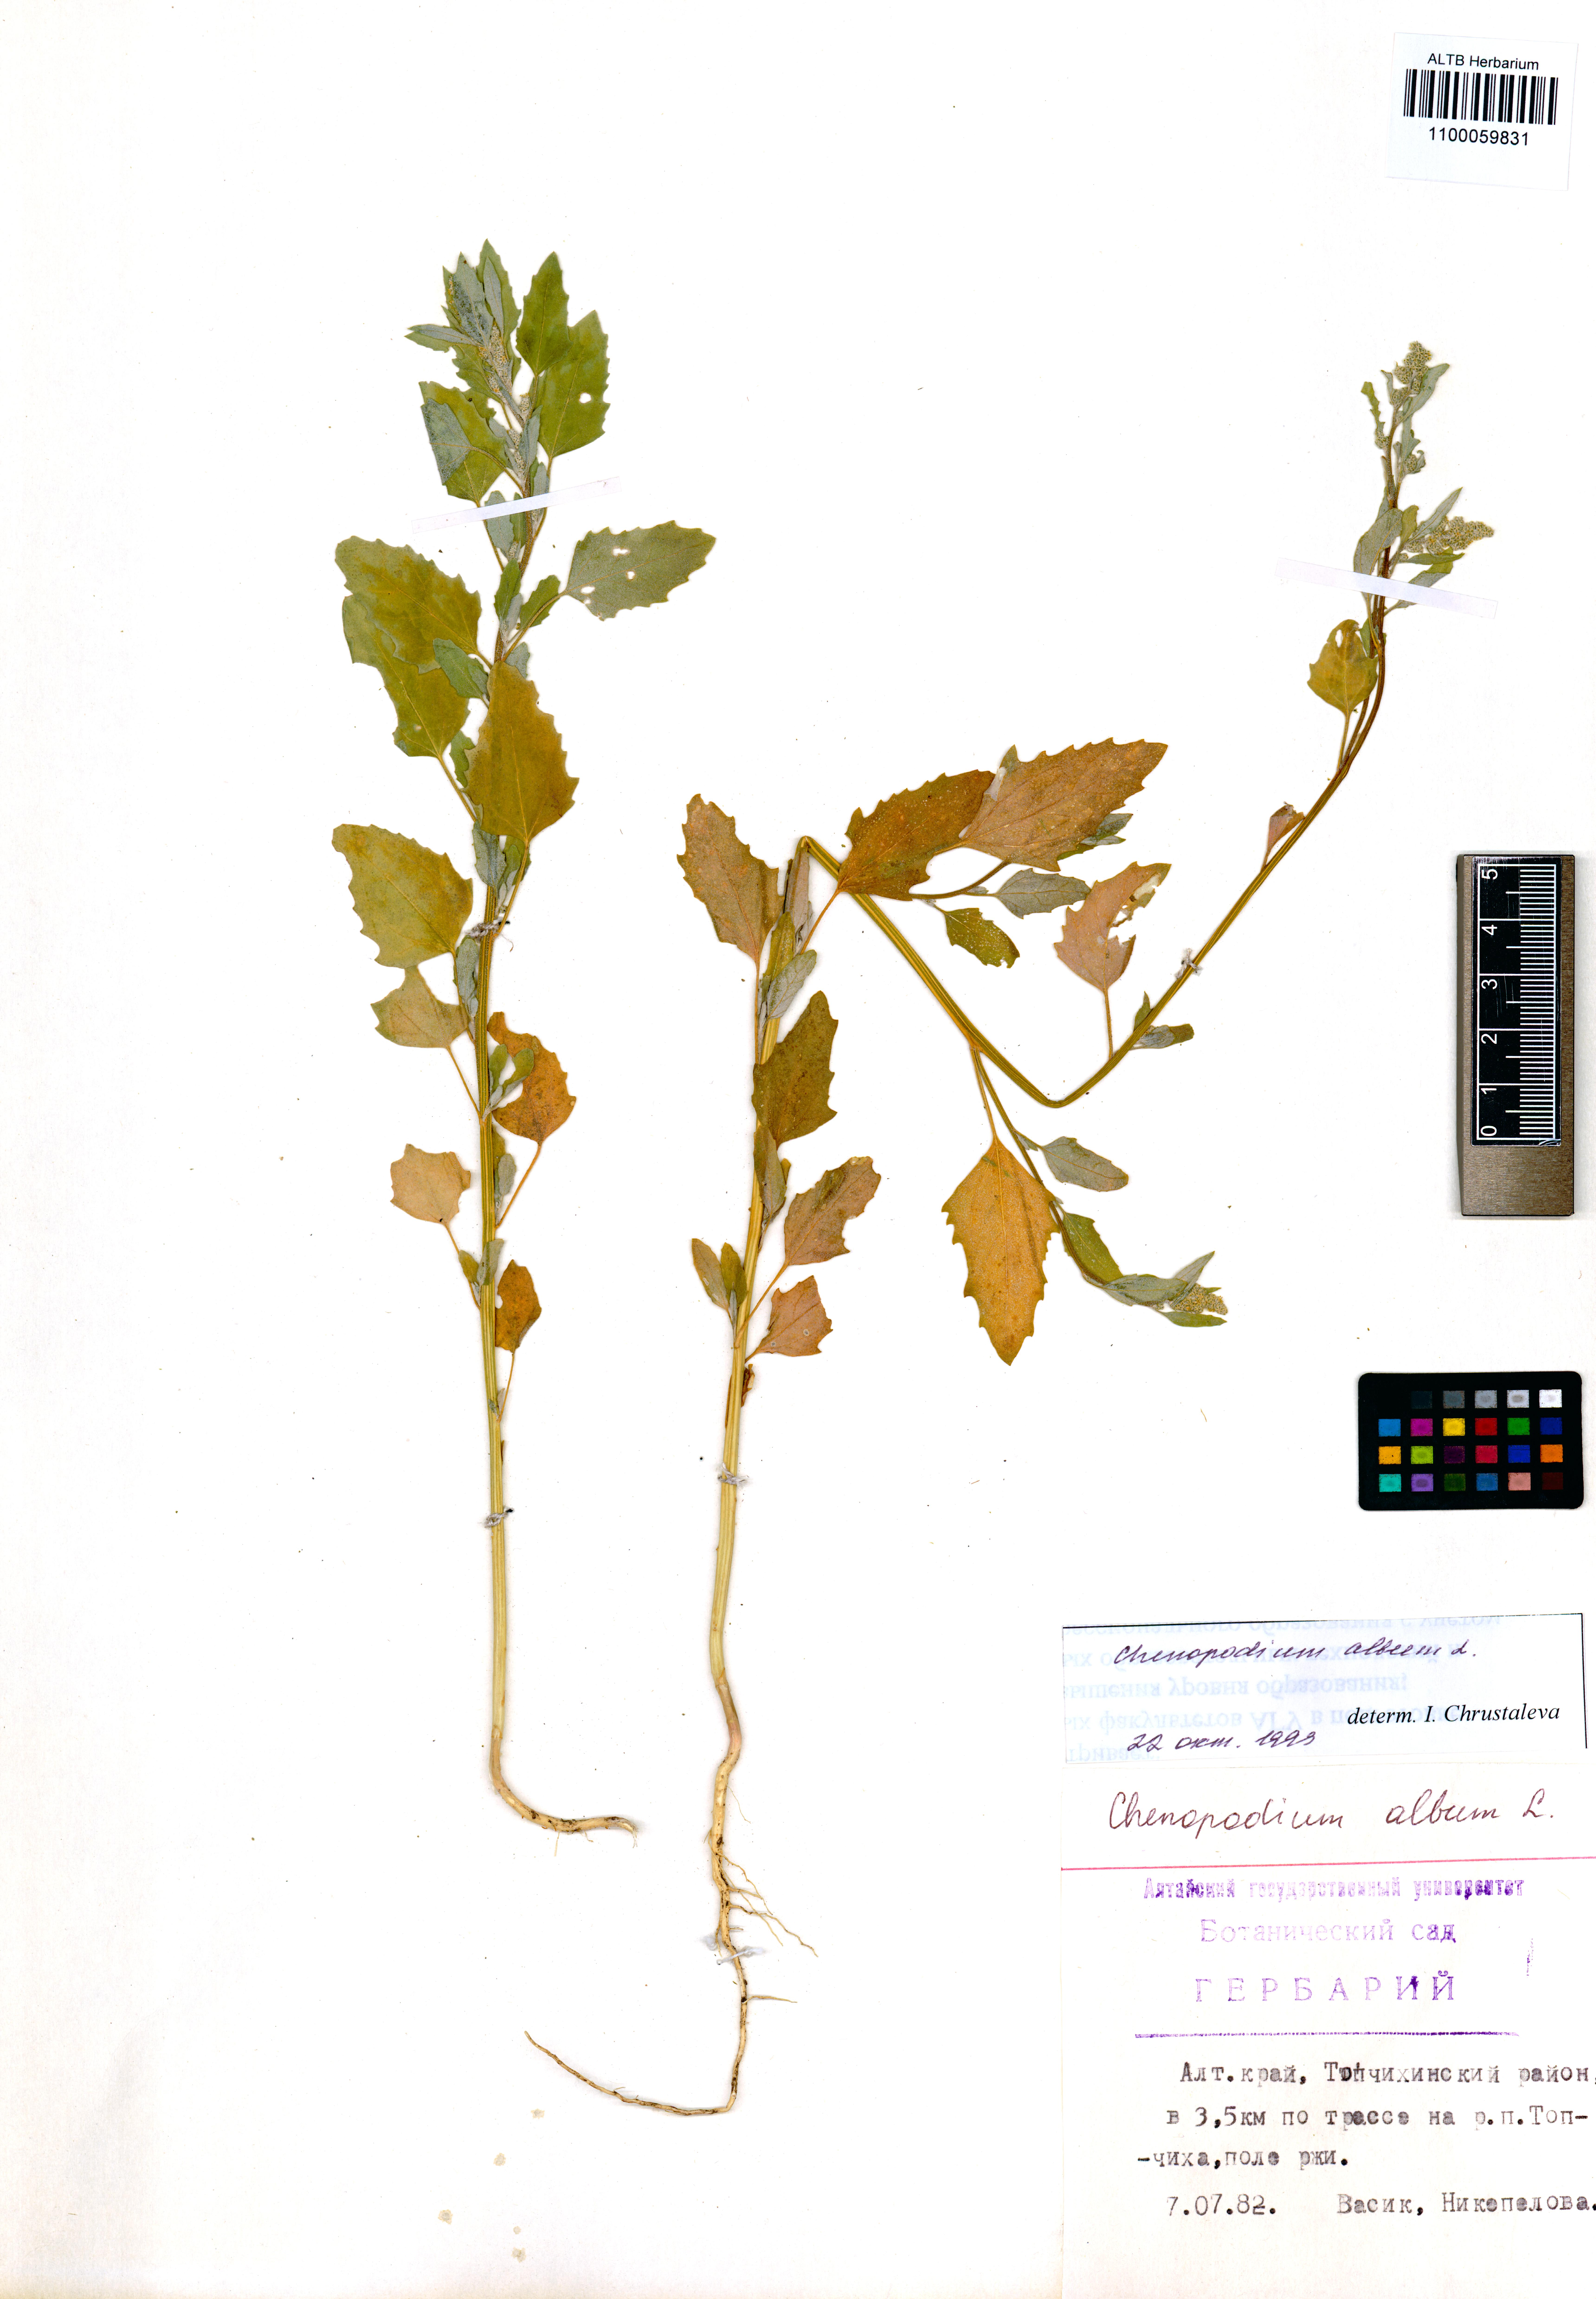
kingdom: Plantae
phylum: Tracheophyta
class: Magnoliopsida
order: Caryophyllales
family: Amaranthaceae
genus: Chenopodium
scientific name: Chenopodium album
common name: Fat-hen
